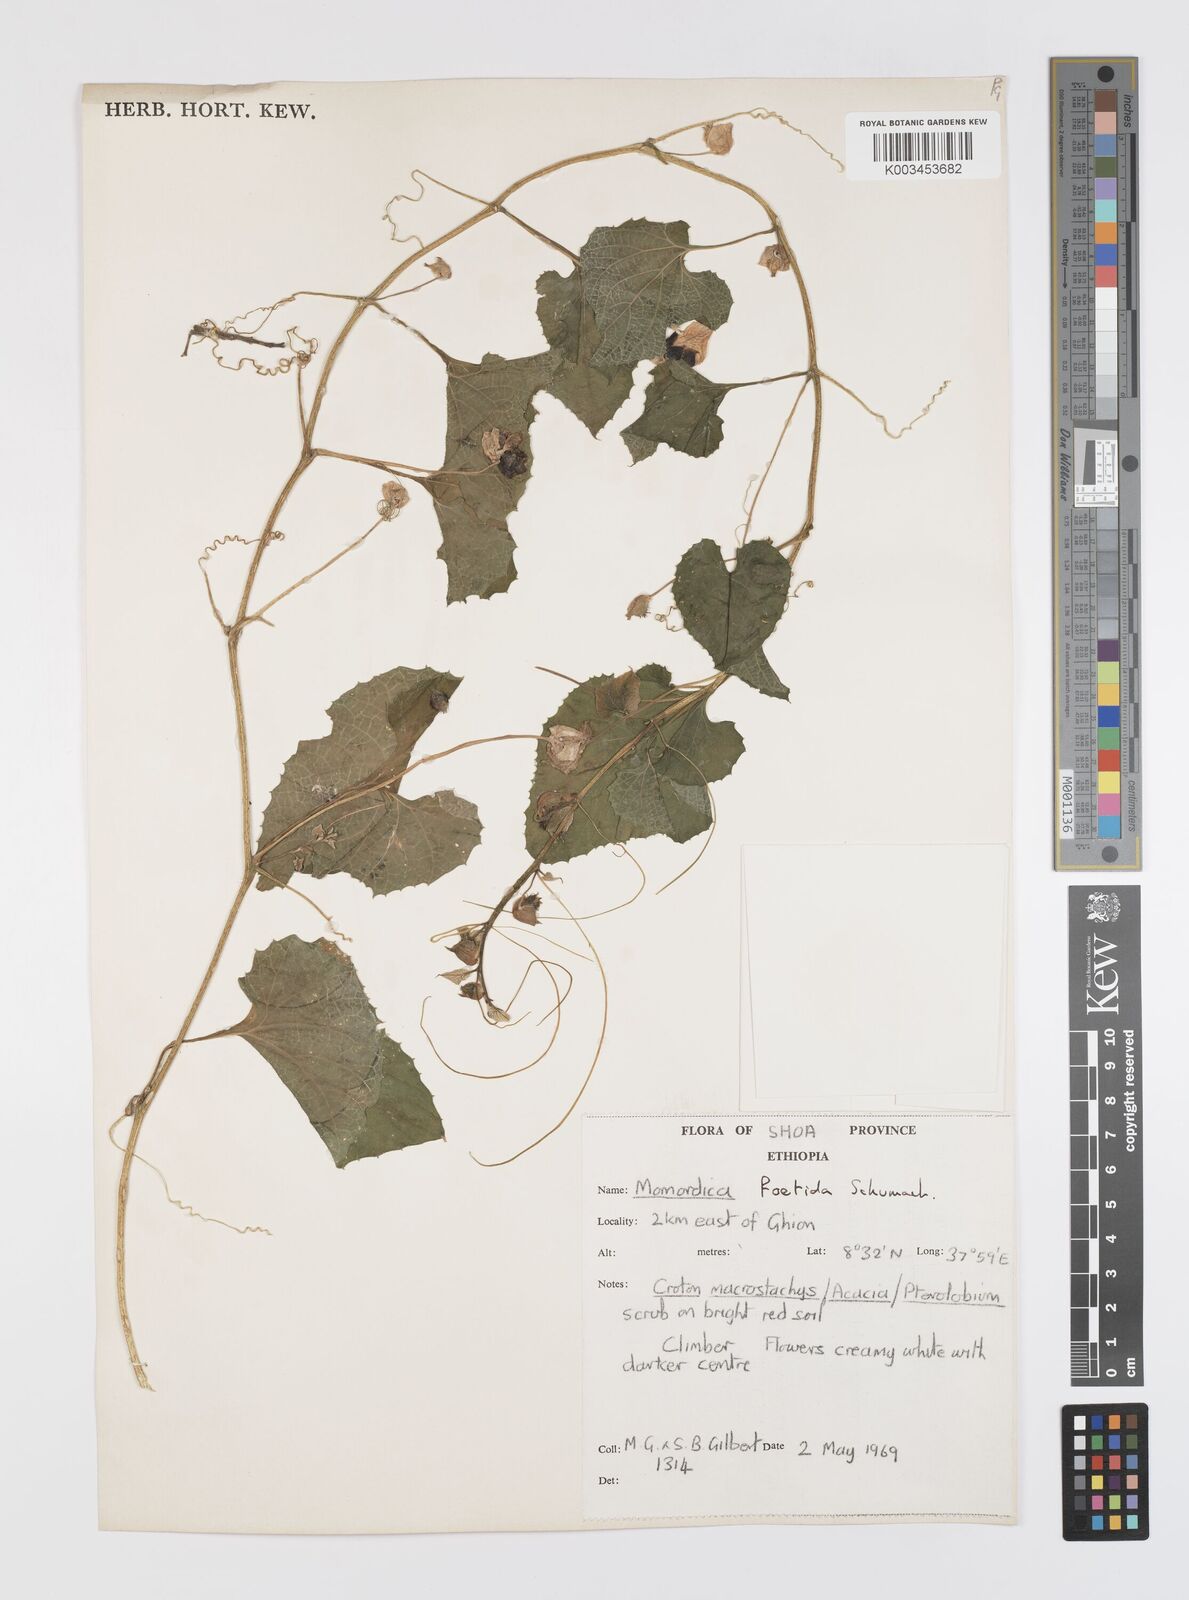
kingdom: Plantae
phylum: Tracheophyta
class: Magnoliopsida
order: Cucurbitales
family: Cucurbitaceae
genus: Momordica
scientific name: Momordica foetida
